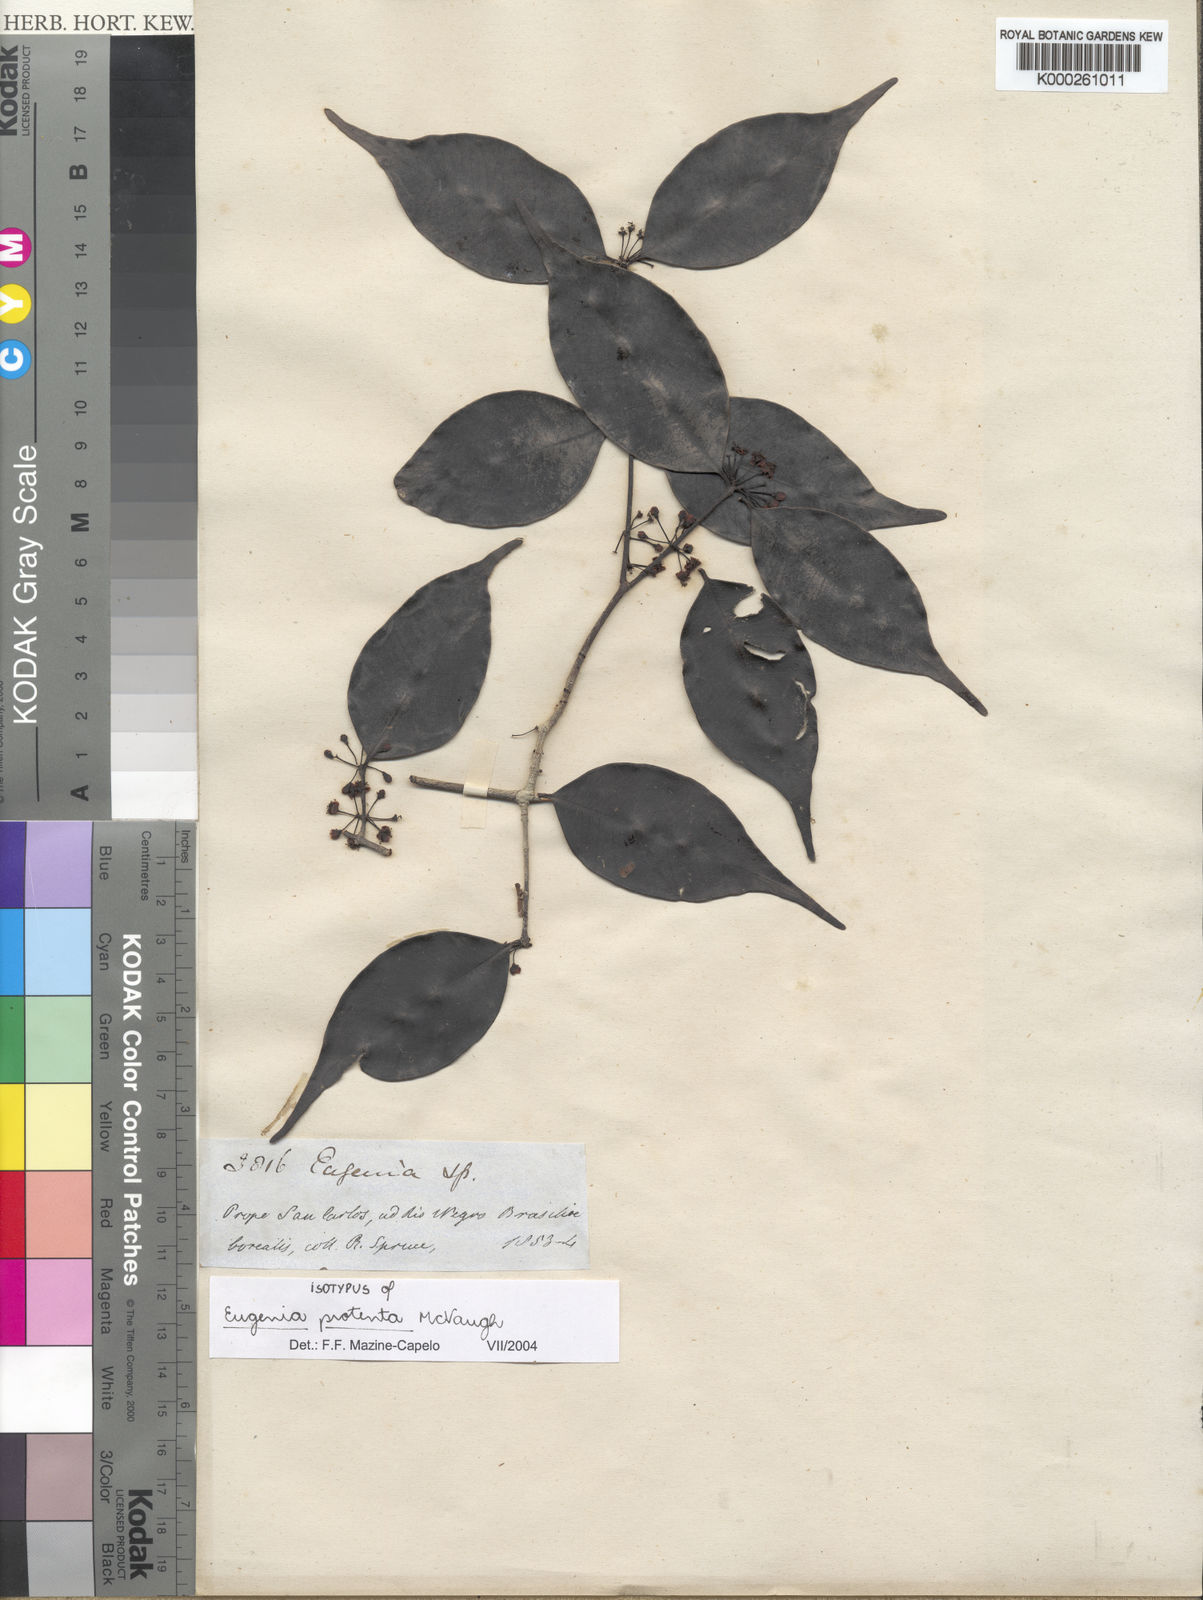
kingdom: Plantae
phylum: Tracheophyta
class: Magnoliopsida
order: Myrtales
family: Myrtaceae
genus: Eugenia
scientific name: Eugenia protenta
